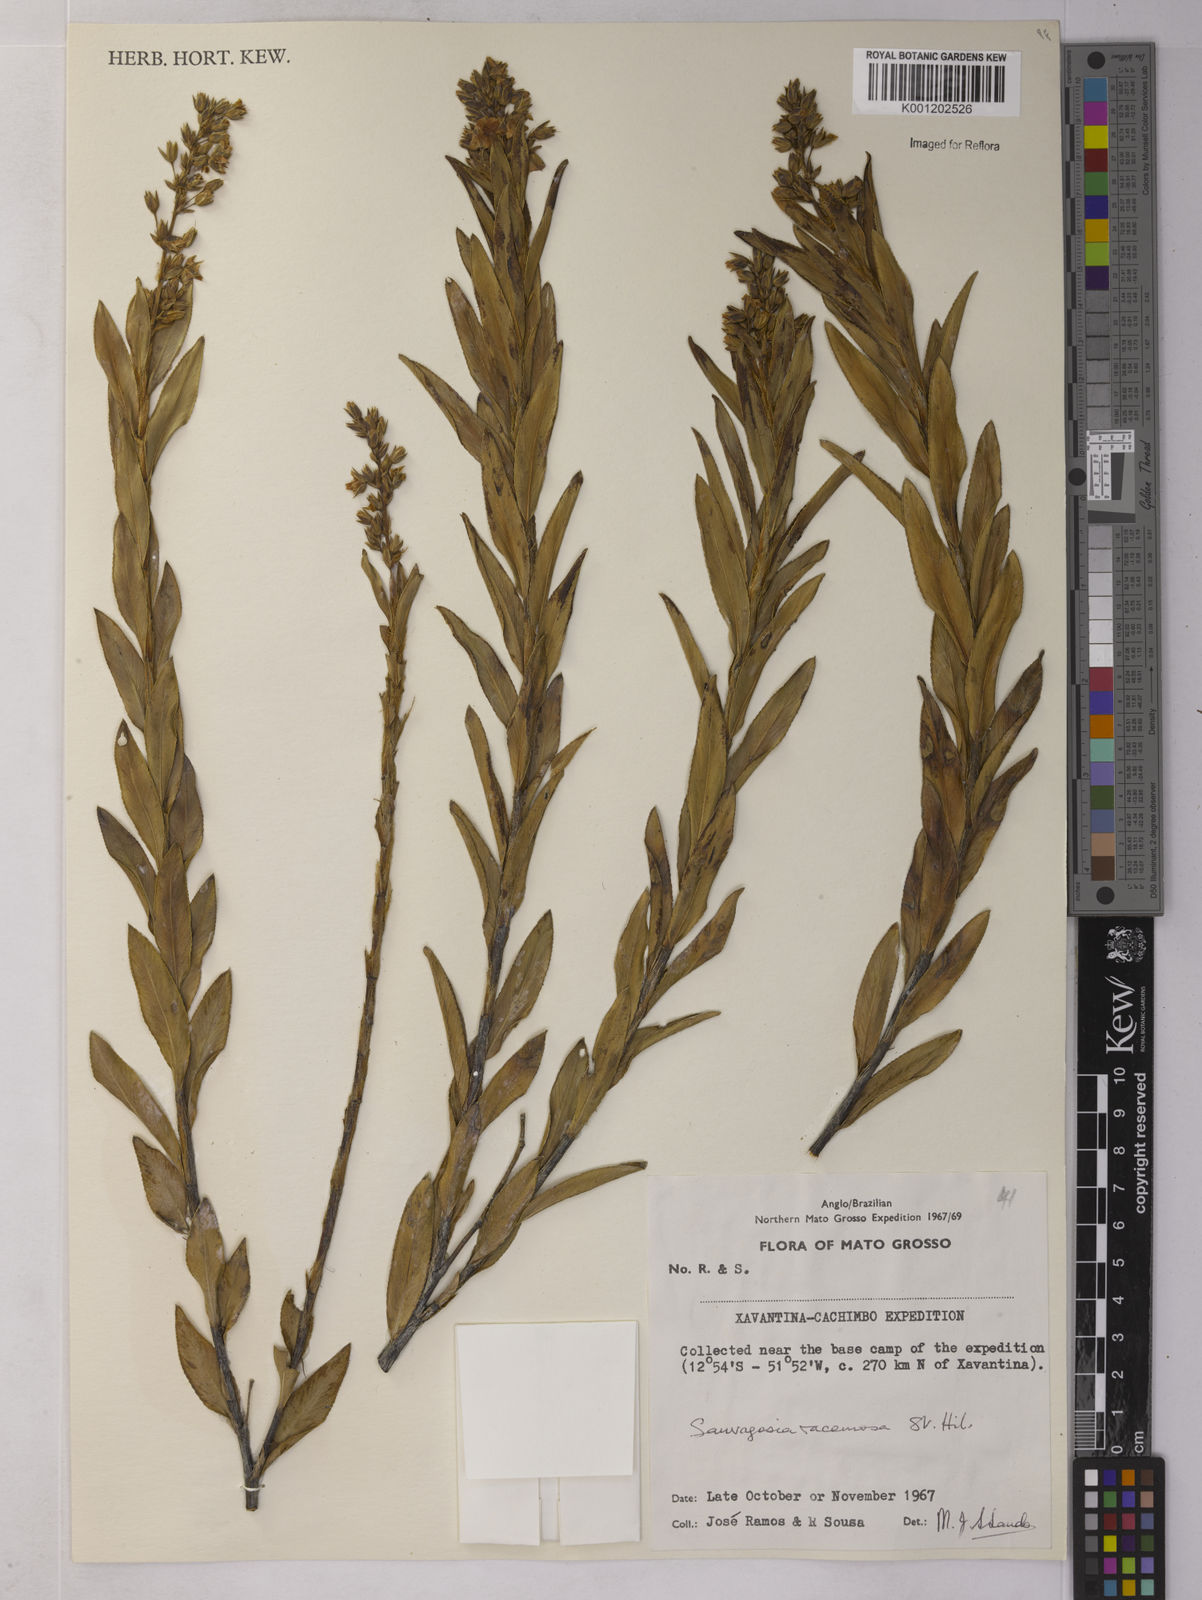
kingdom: Plantae
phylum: Tracheophyta
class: Magnoliopsida
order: Malpighiales
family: Ochnaceae
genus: Sauvagesia
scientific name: Sauvagesia racemosa
